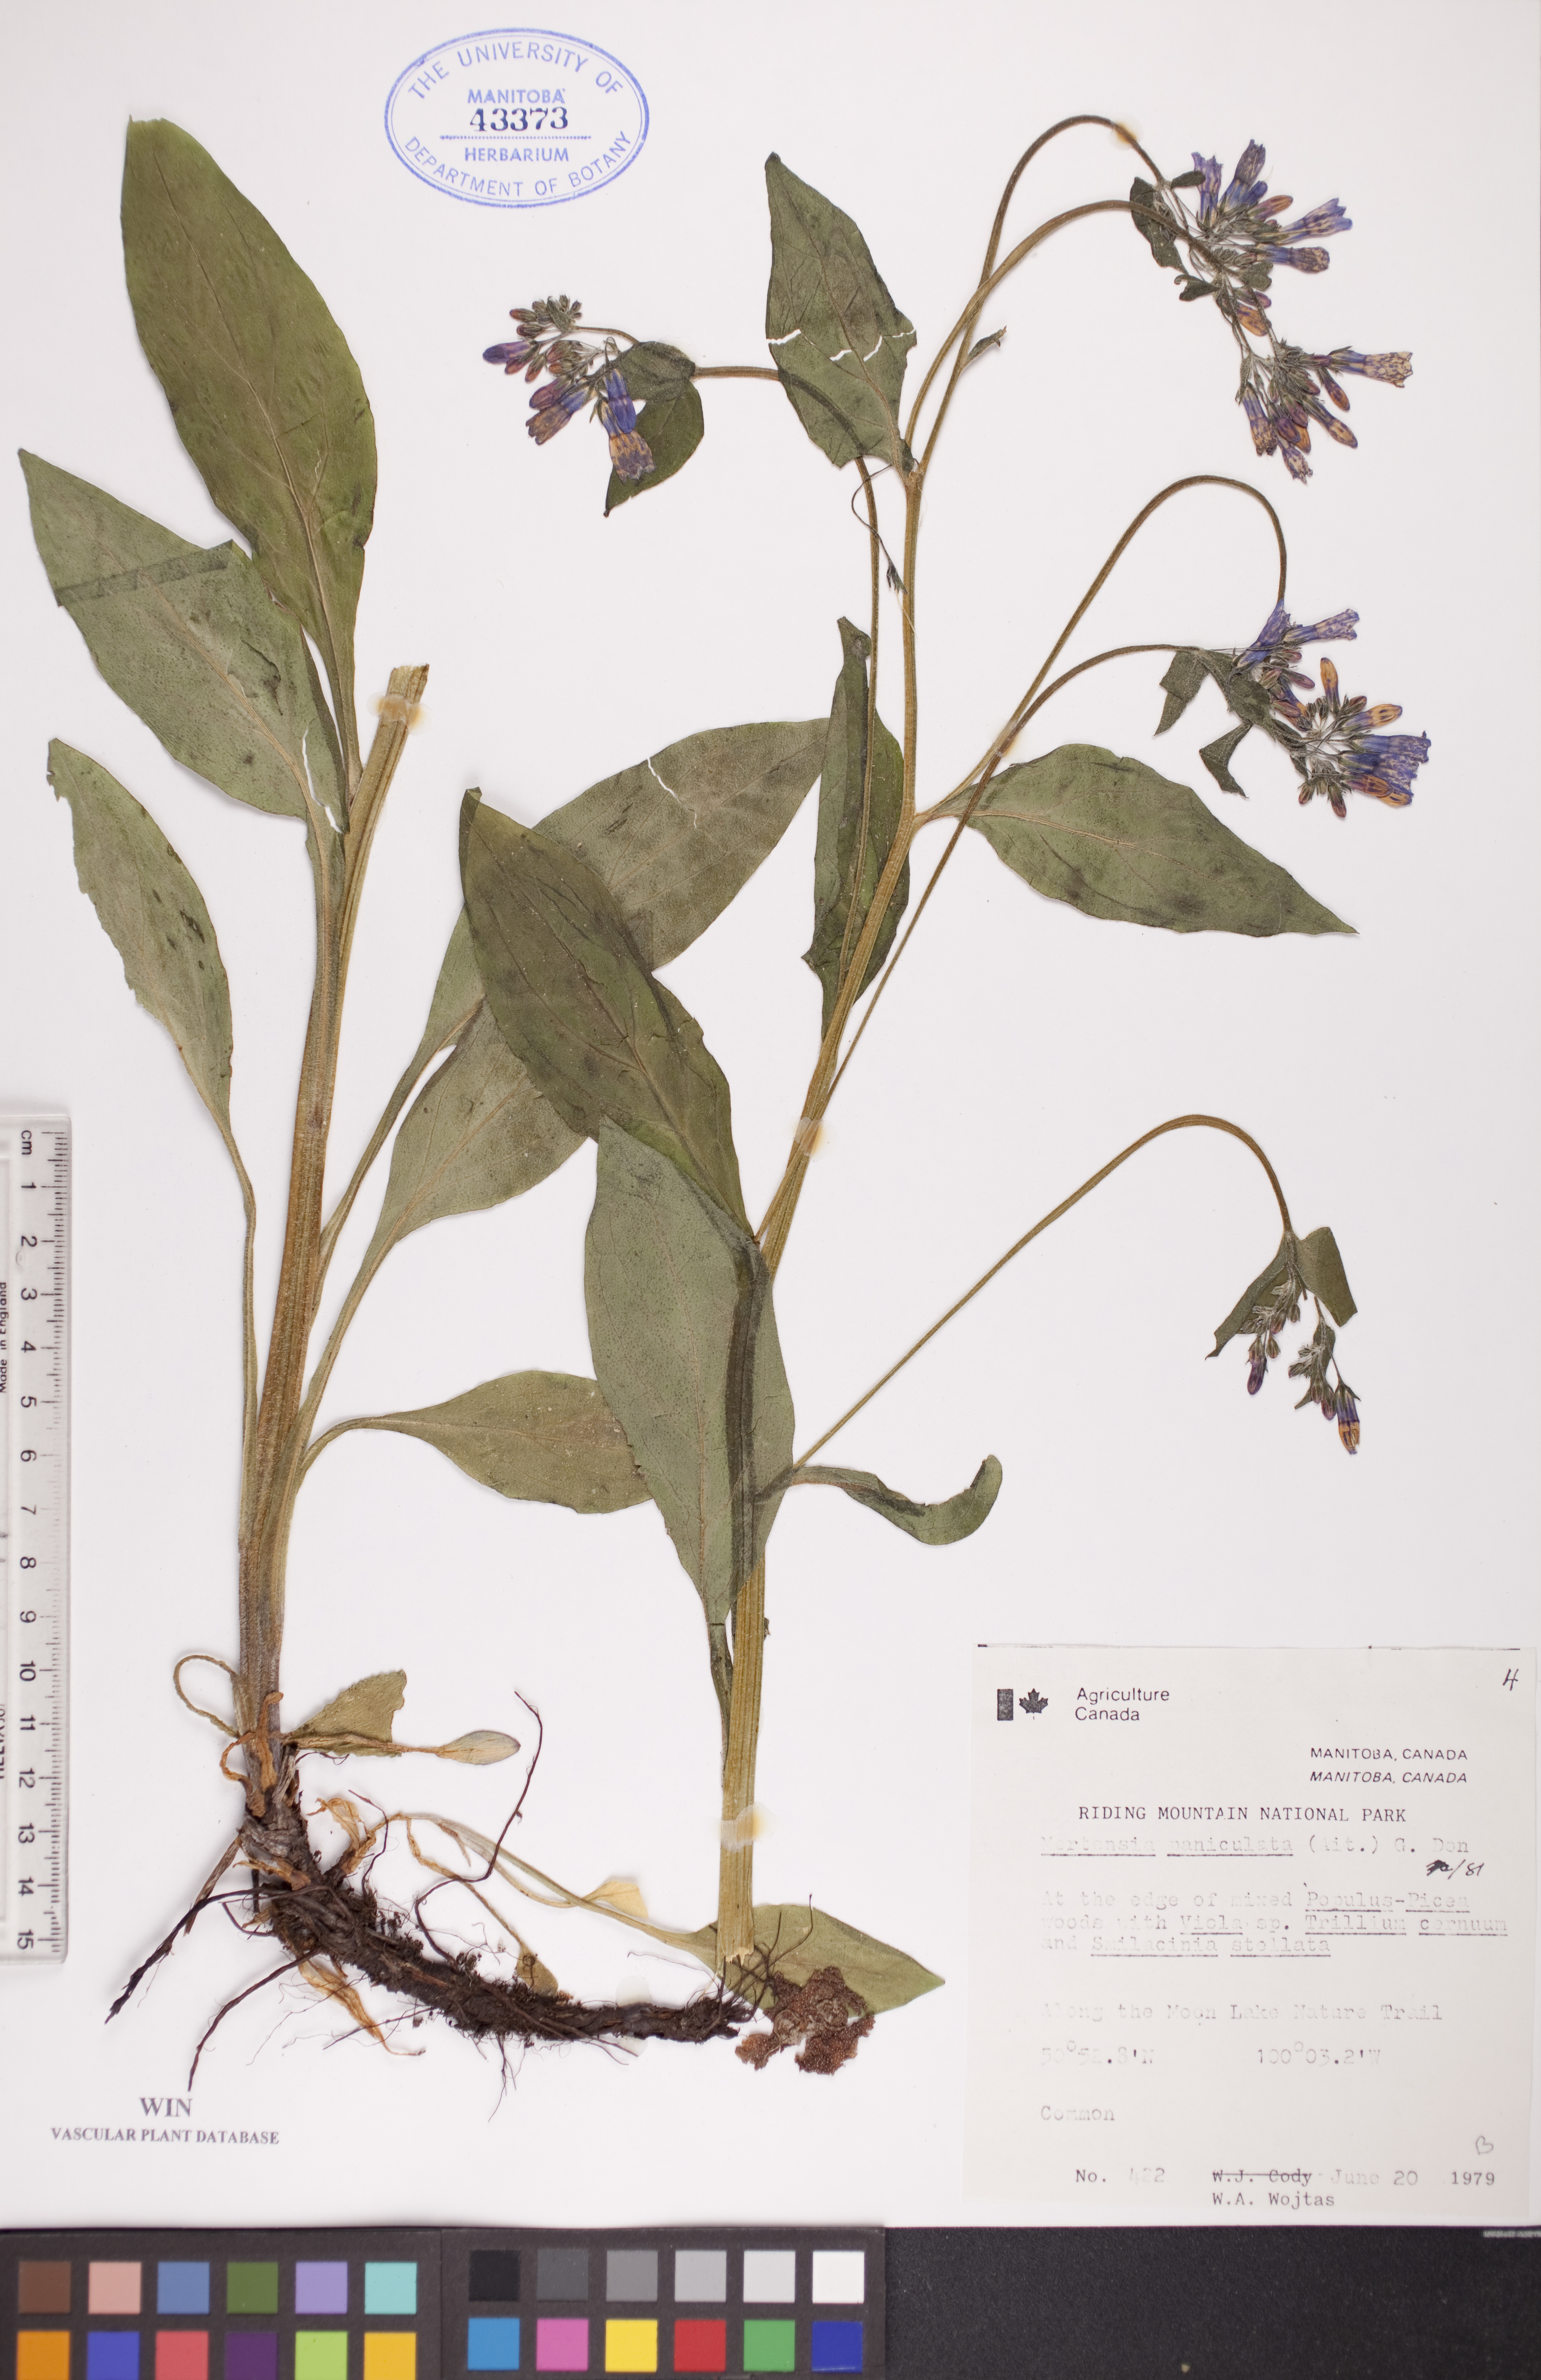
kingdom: Plantae
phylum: Tracheophyta
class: Magnoliopsida
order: Boraginales
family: Boraginaceae
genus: Mertensia
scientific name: Mertensia paniculata
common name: Panicled bluebells
